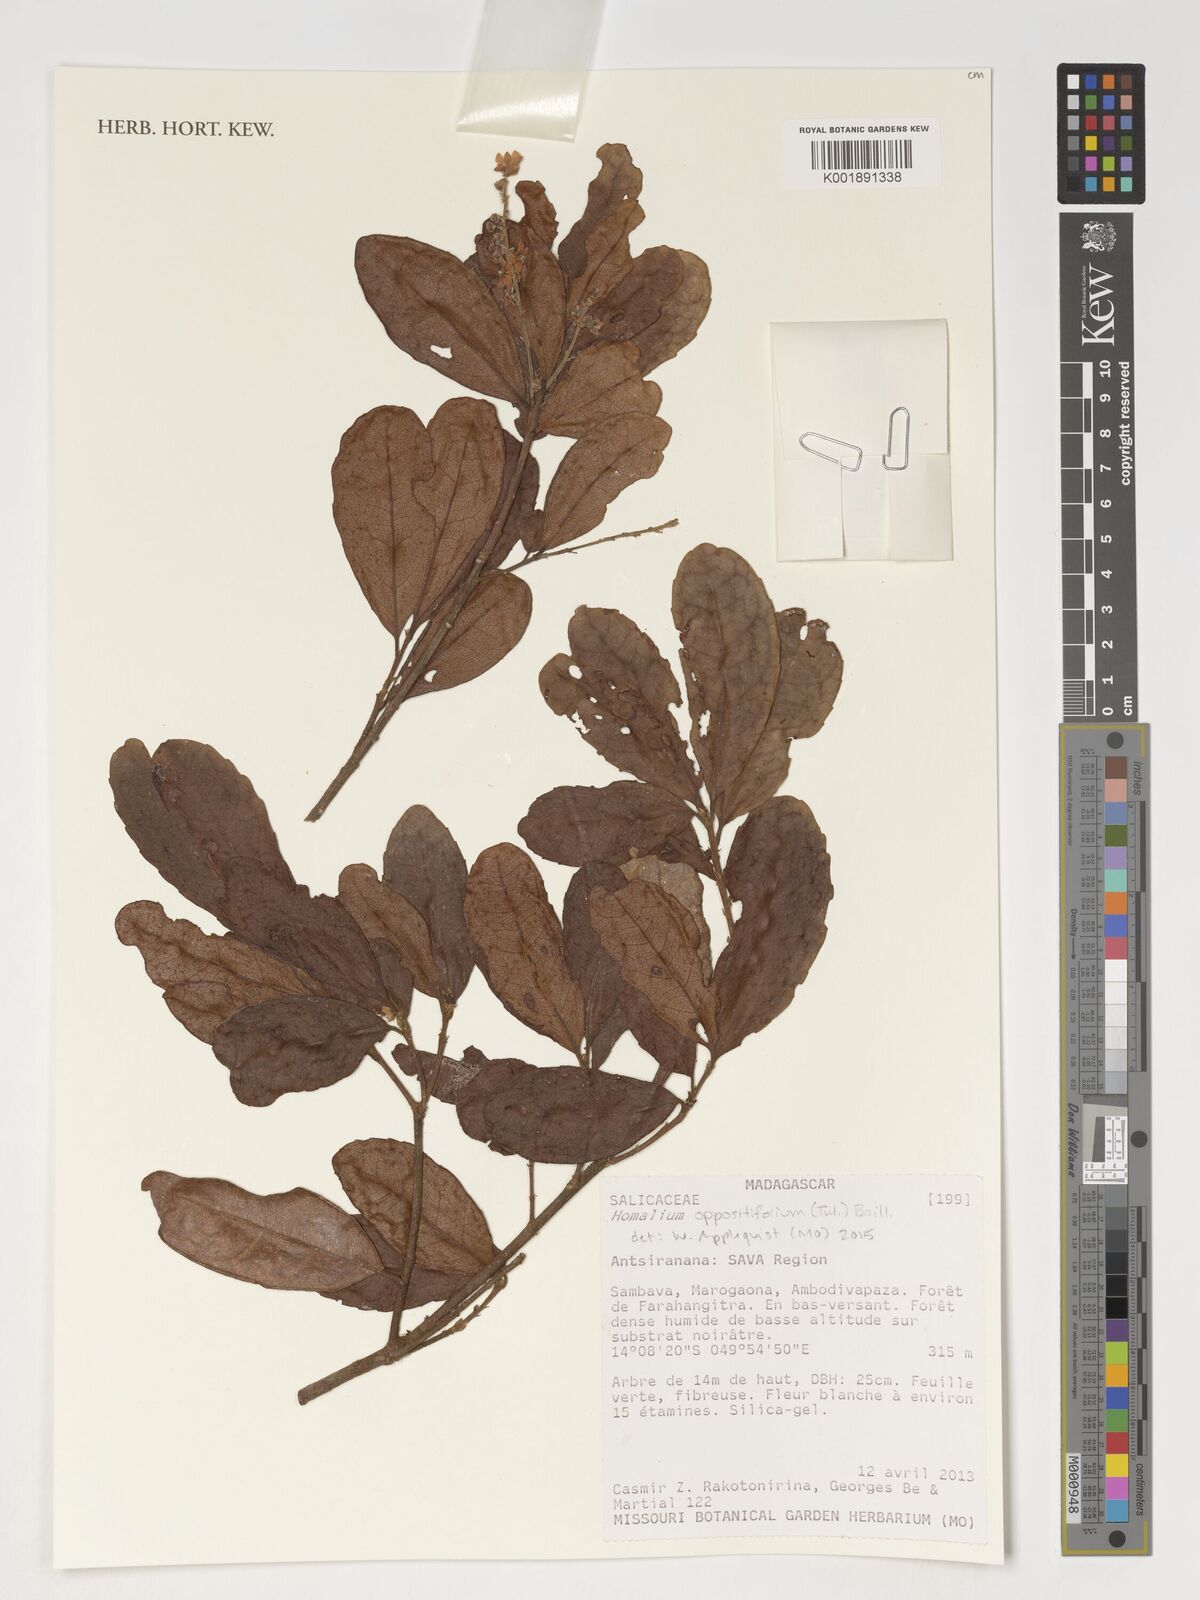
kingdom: Plantae
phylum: Tracheophyta
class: Magnoliopsida
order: Malpighiales
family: Salicaceae
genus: Homalium
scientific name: Homalium oppositifolium
